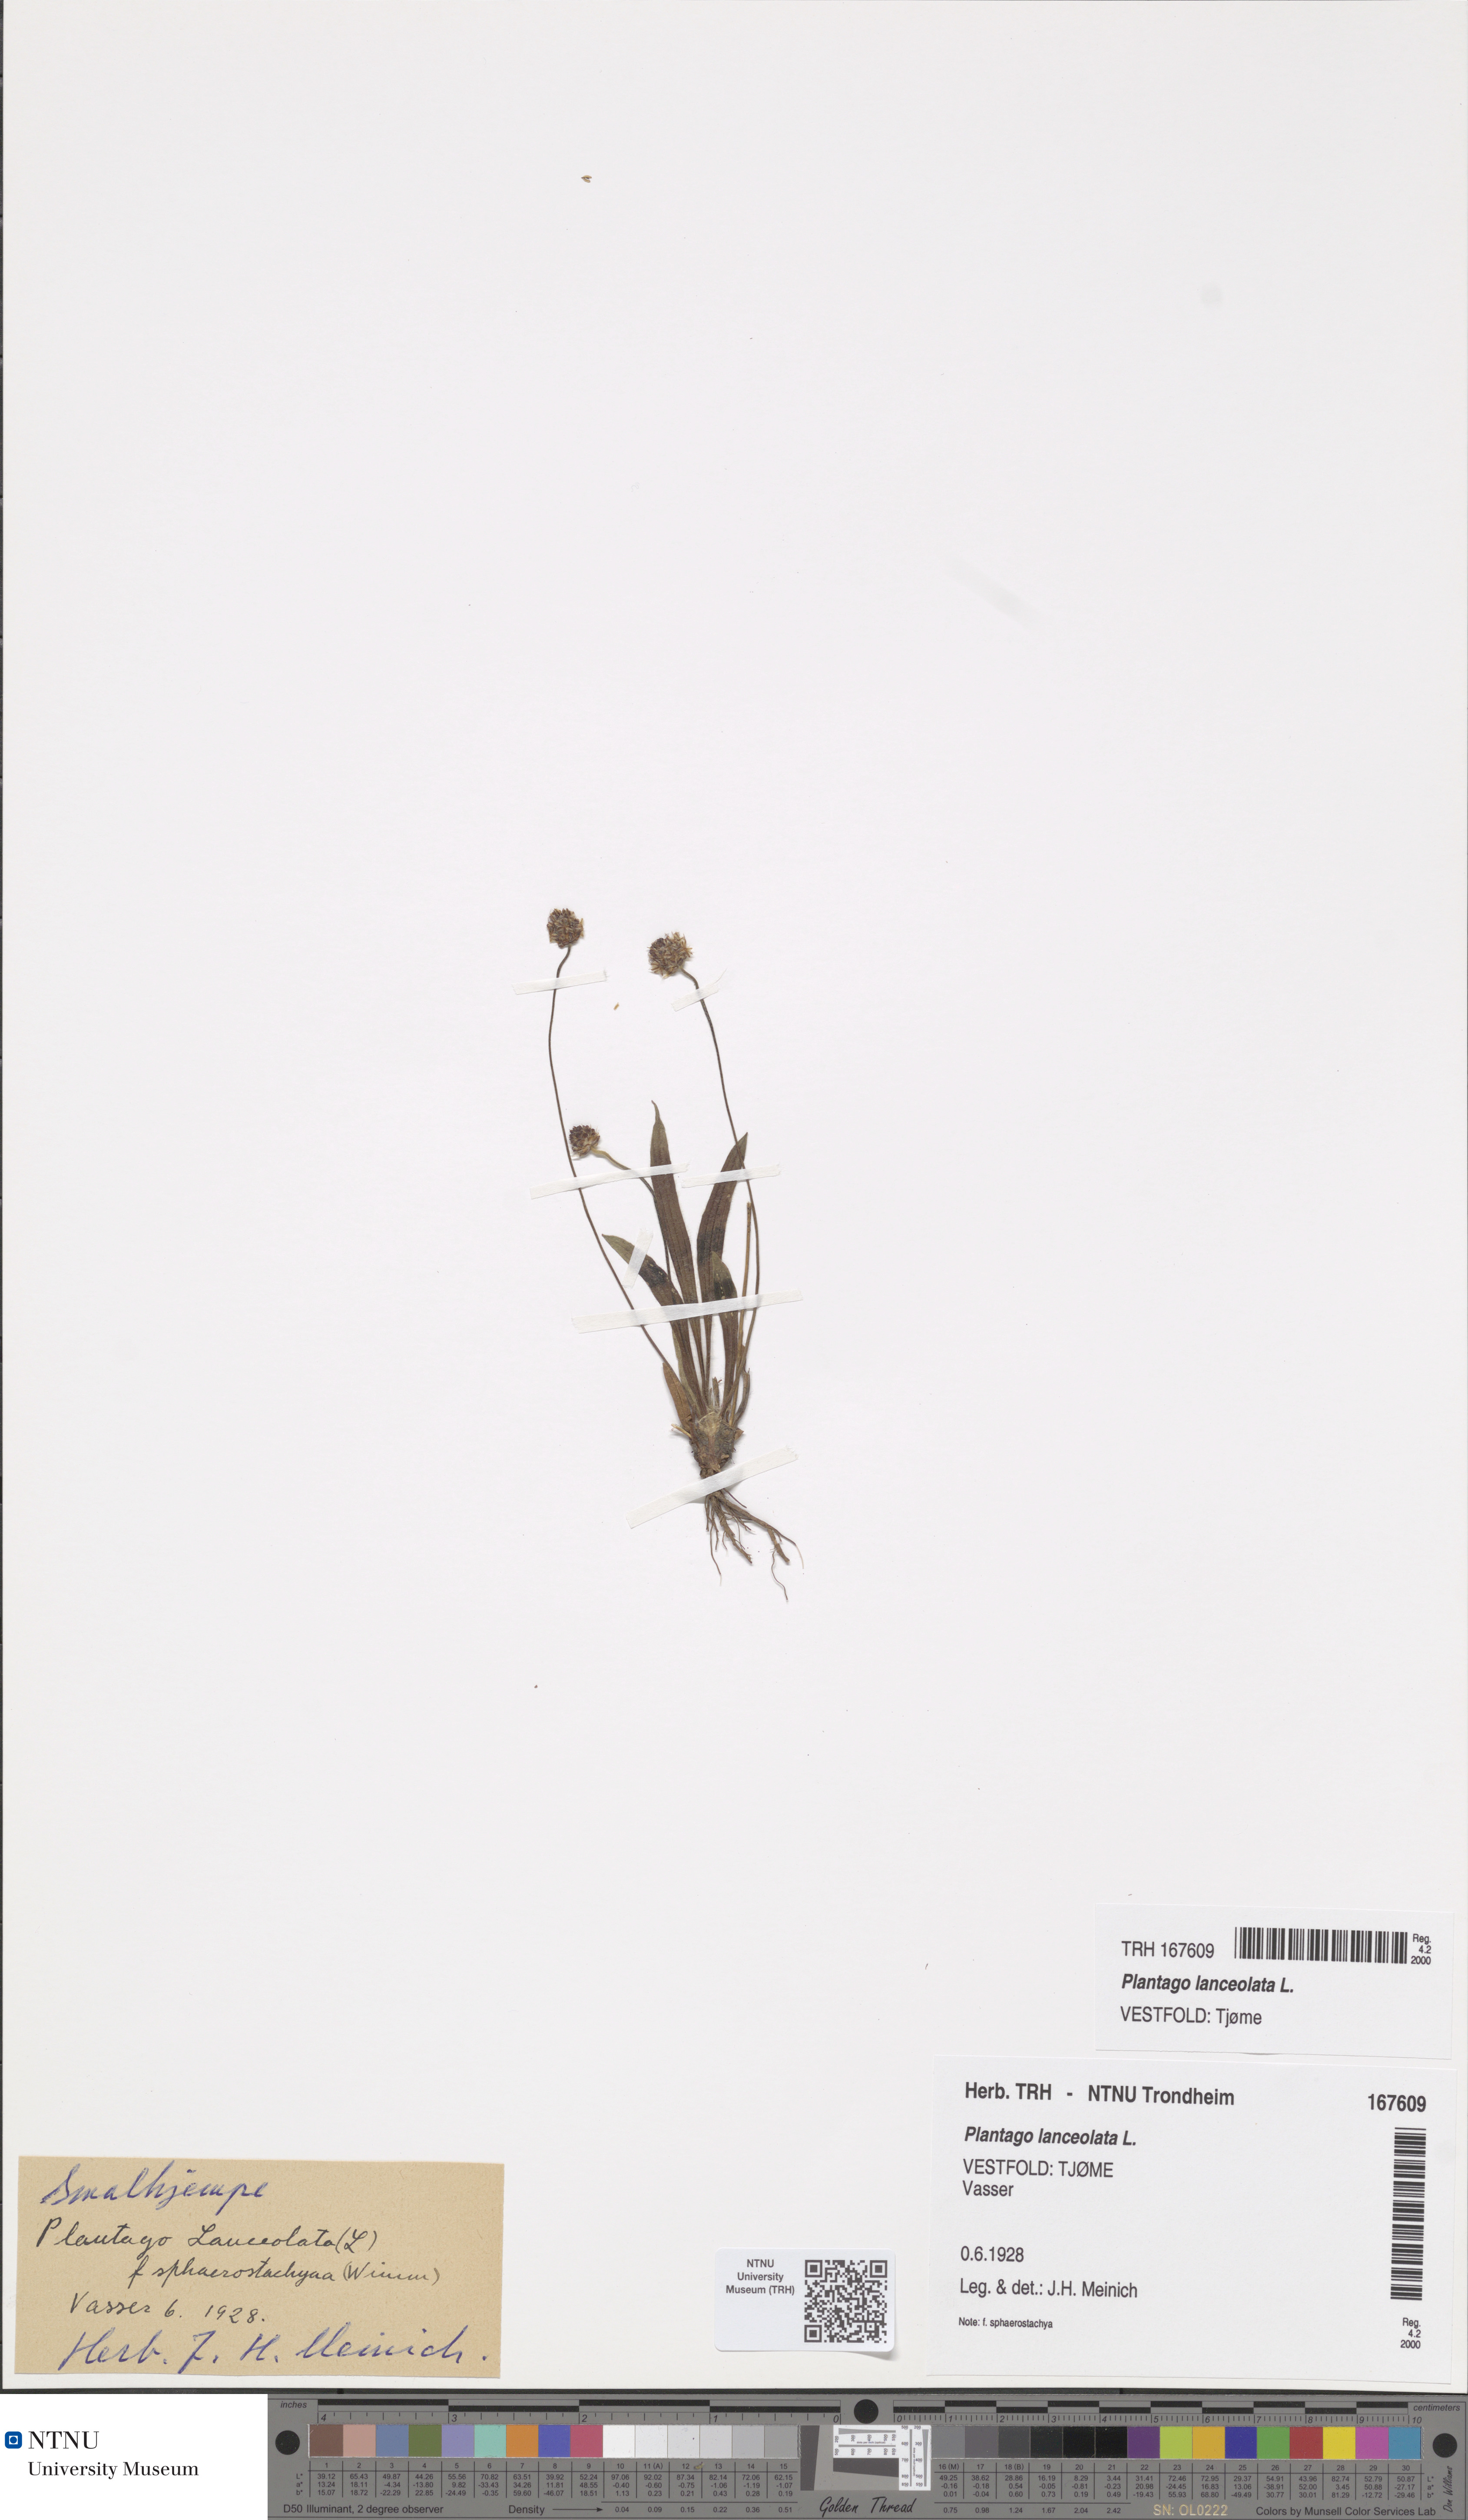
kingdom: Plantae
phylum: Tracheophyta
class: Magnoliopsida
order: Lamiales
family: Plantaginaceae
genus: Plantago
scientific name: Plantago lanceolata
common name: Ribwort plantain
